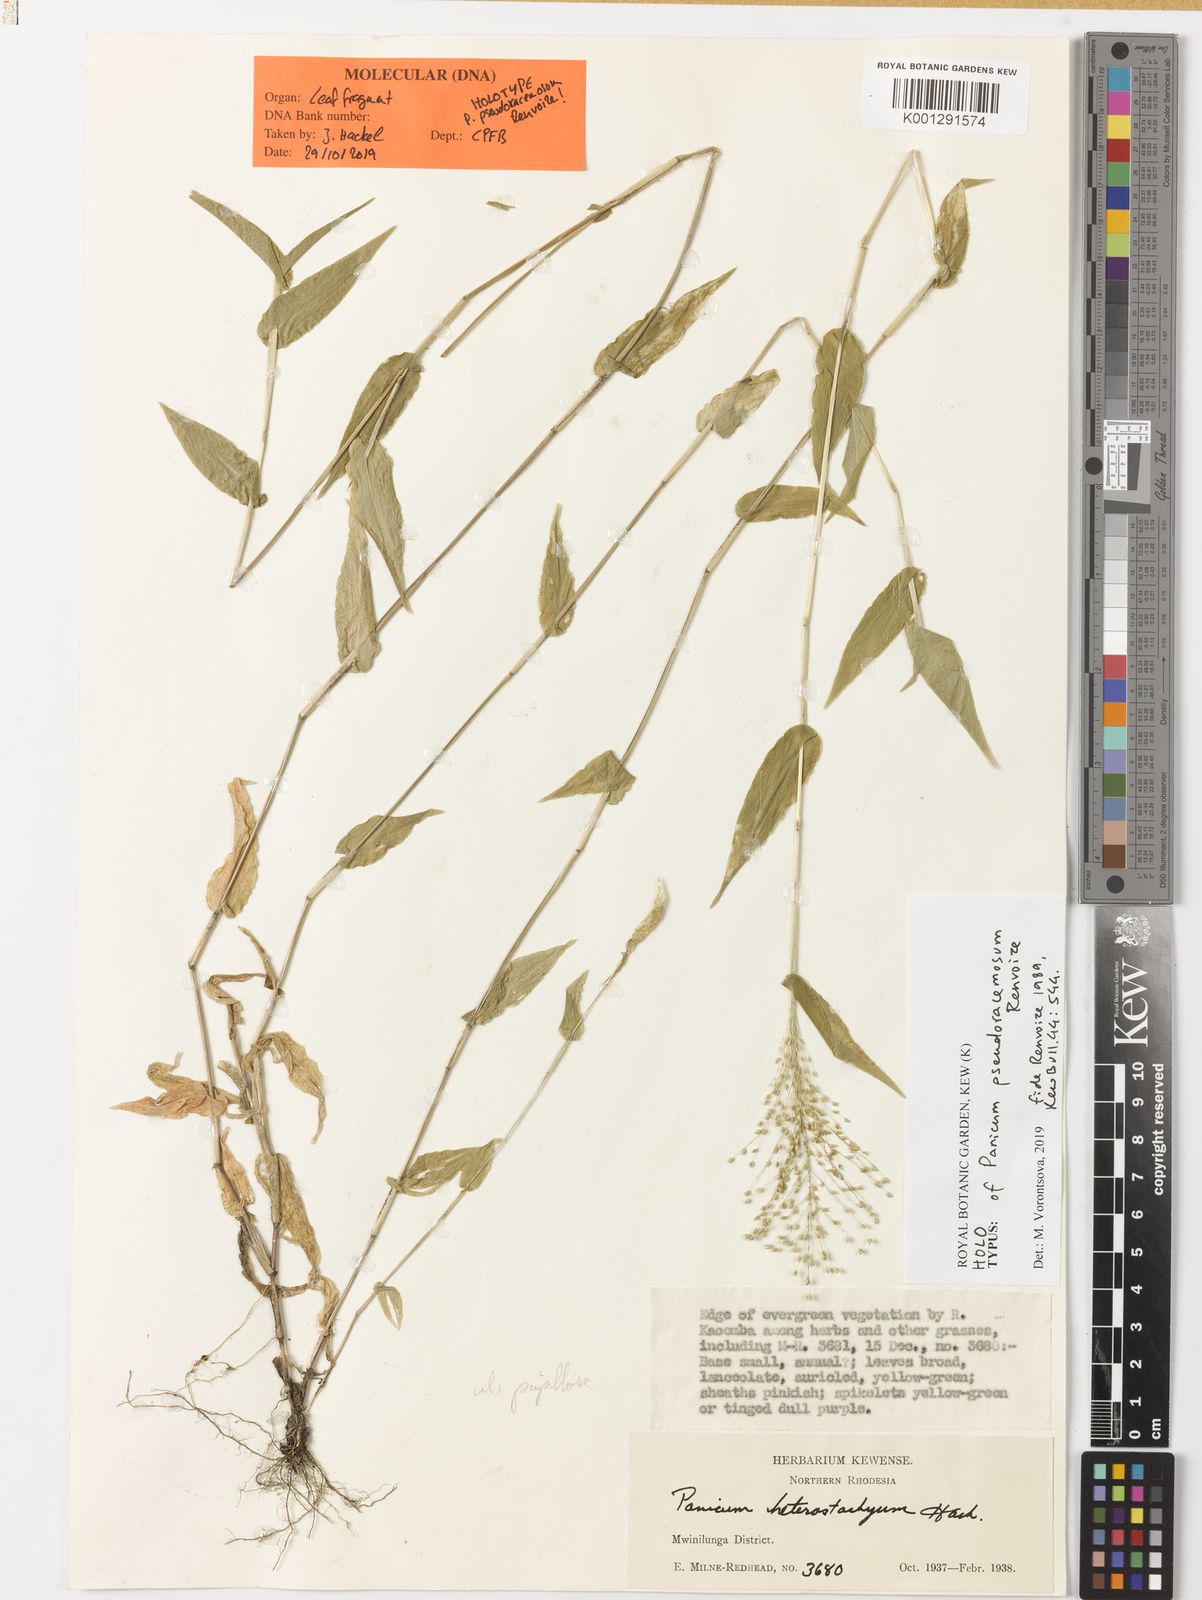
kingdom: Plantae
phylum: Tracheophyta
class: Liliopsida
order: Poales
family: Poaceae
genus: Panicum
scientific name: Panicum pseudoracemosum
